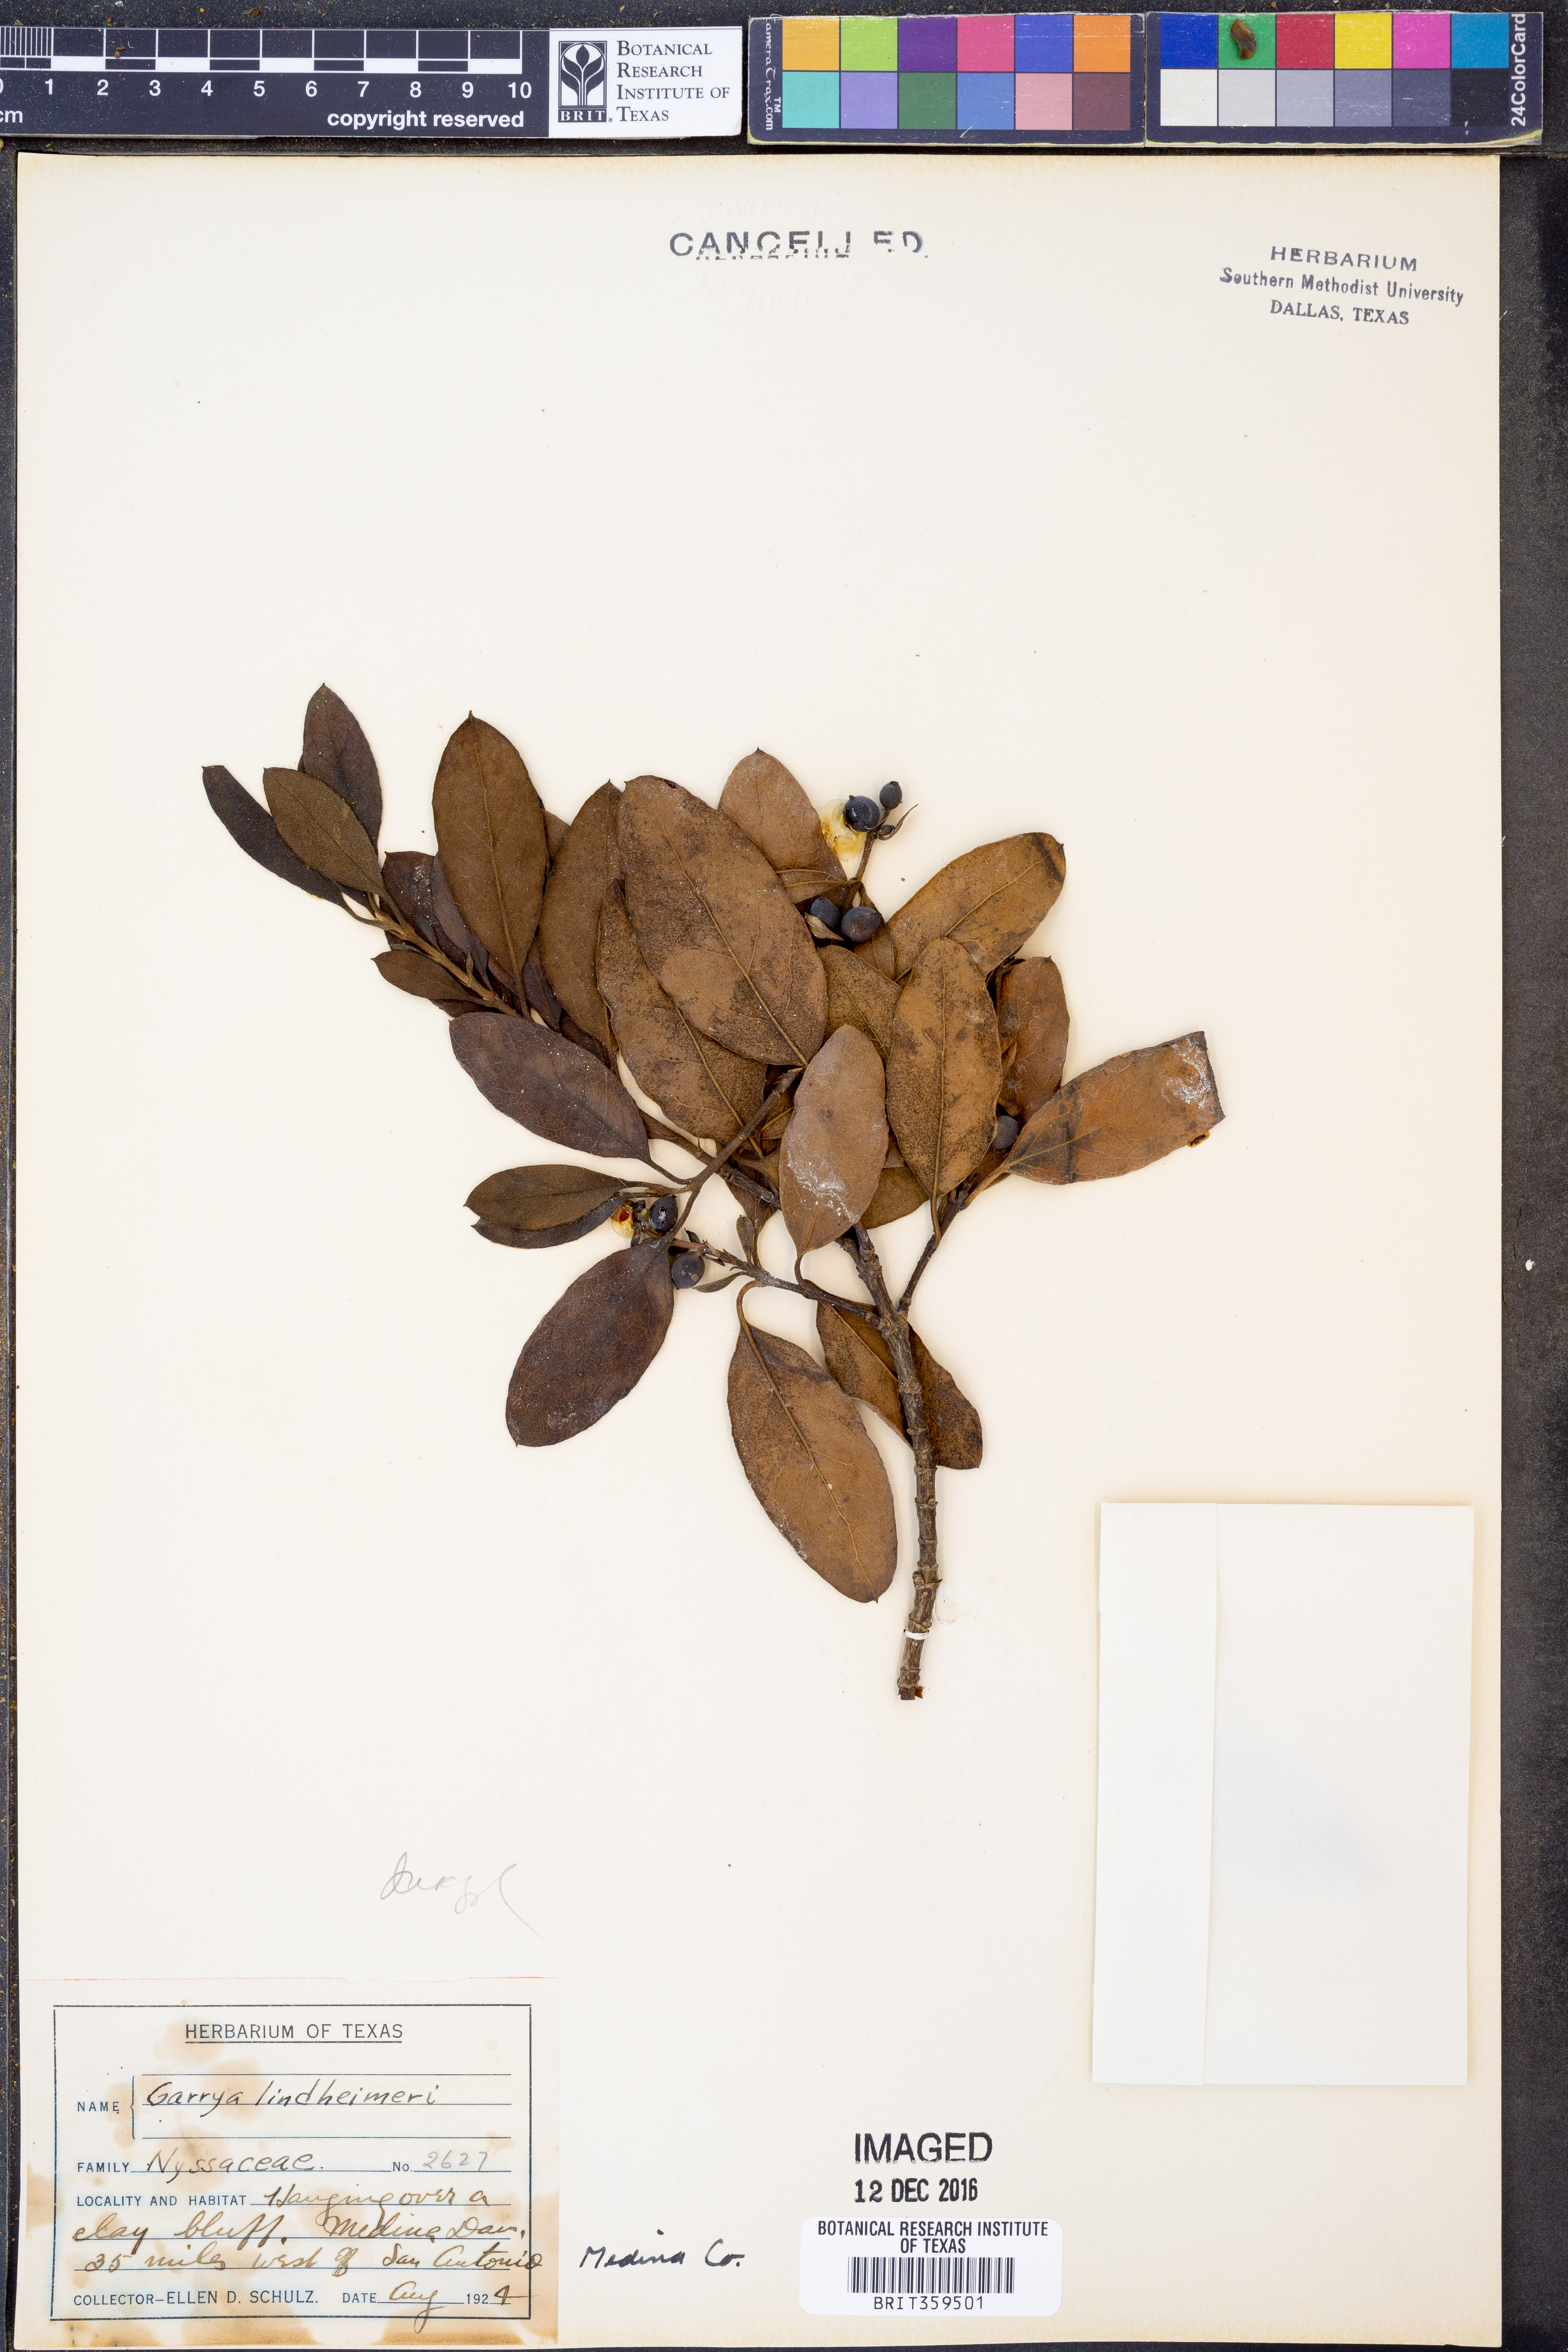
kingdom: Plantae
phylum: Tracheophyta
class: Magnoliopsida
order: Garryales
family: Garryaceae
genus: Garrya
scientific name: Garrya lindheimeri
